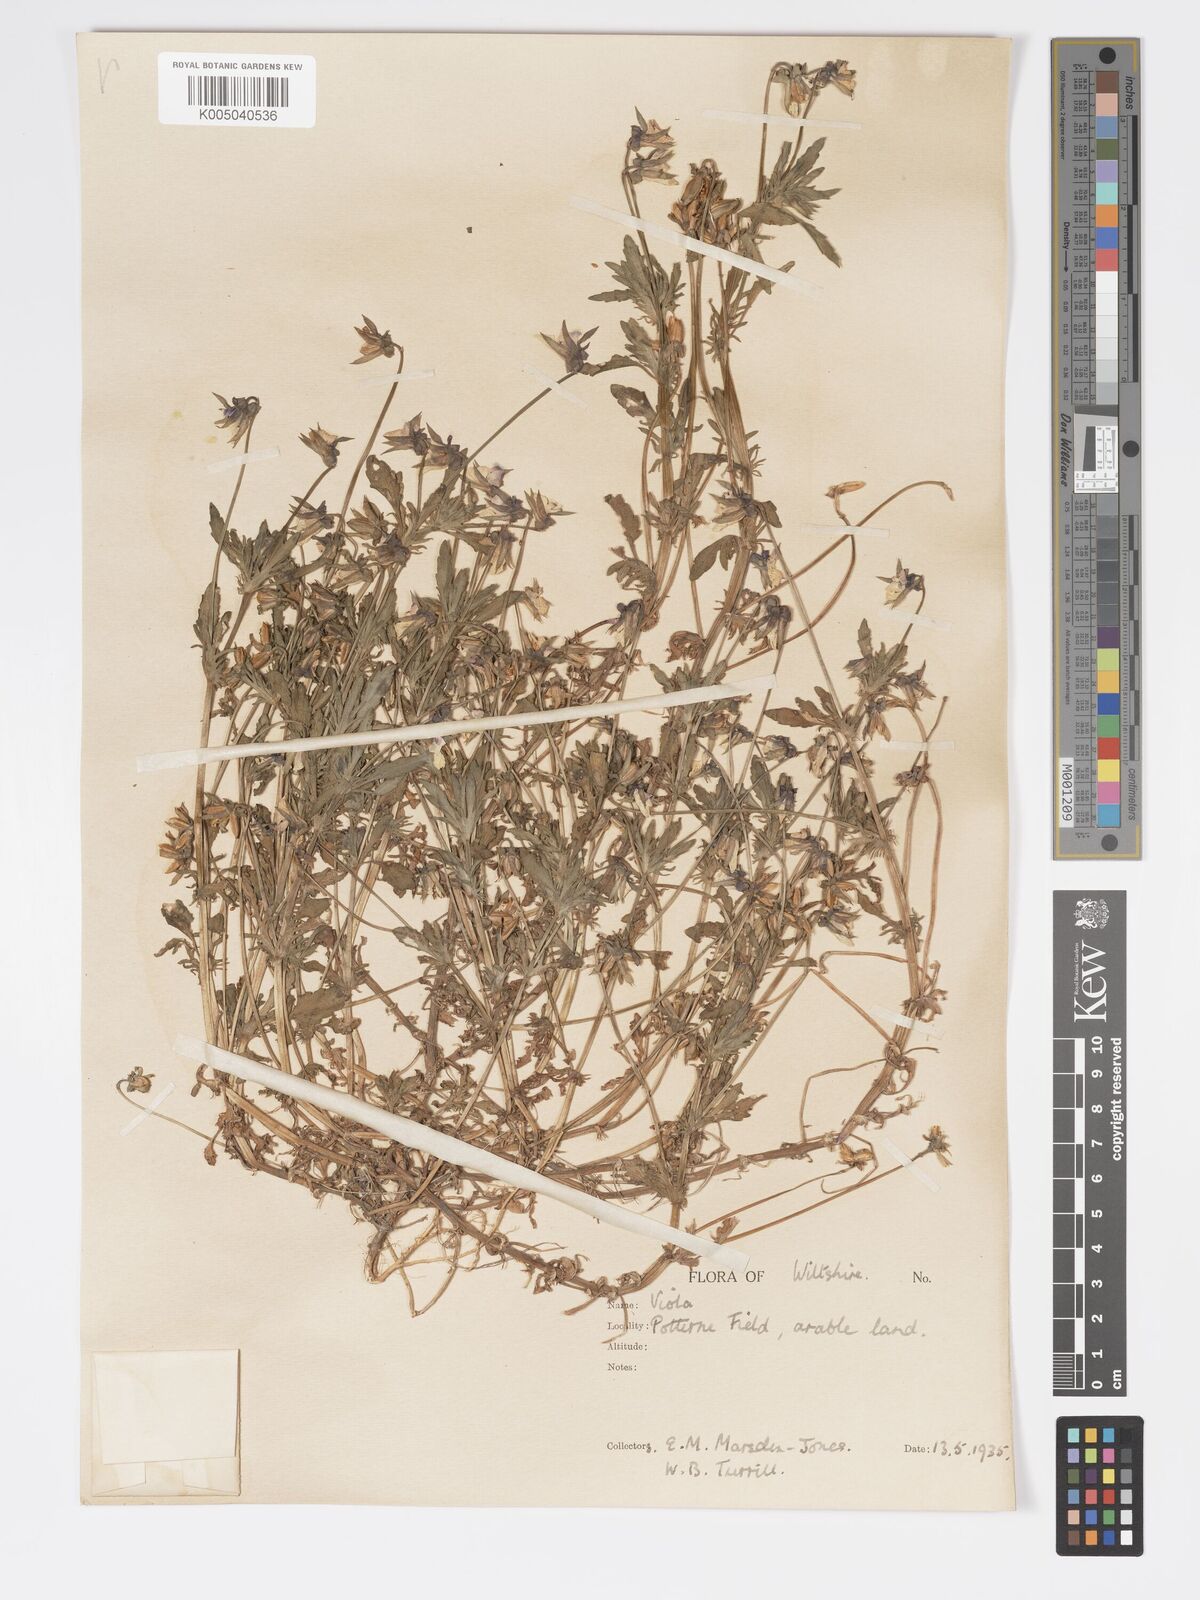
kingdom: Plantae
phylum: Tracheophyta
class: Magnoliopsida
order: Malpighiales
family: Violaceae
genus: Viola
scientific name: Viola
